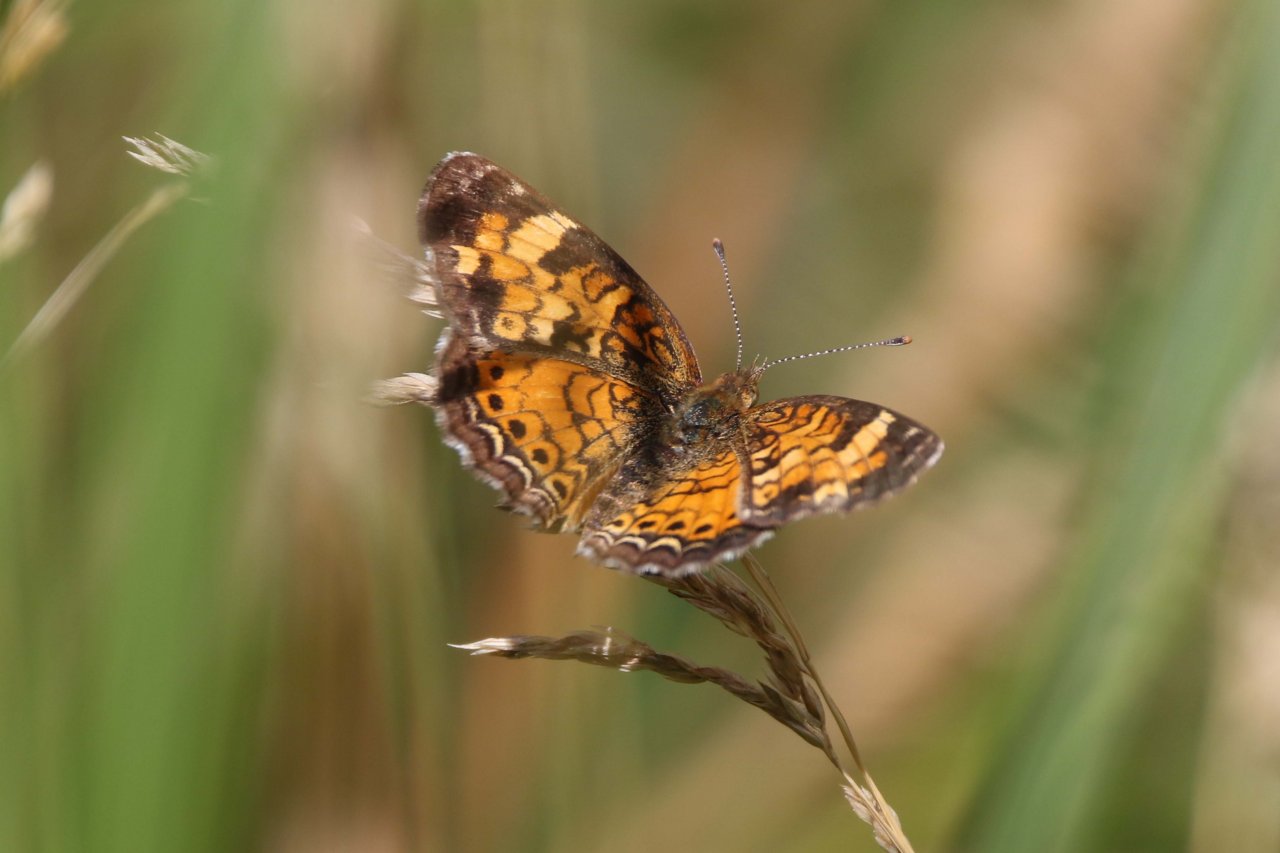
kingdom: Animalia
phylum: Arthropoda
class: Insecta
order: Lepidoptera
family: Nymphalidae
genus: Phyciodes
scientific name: Phyciodes tharos
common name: Northern Crescent
